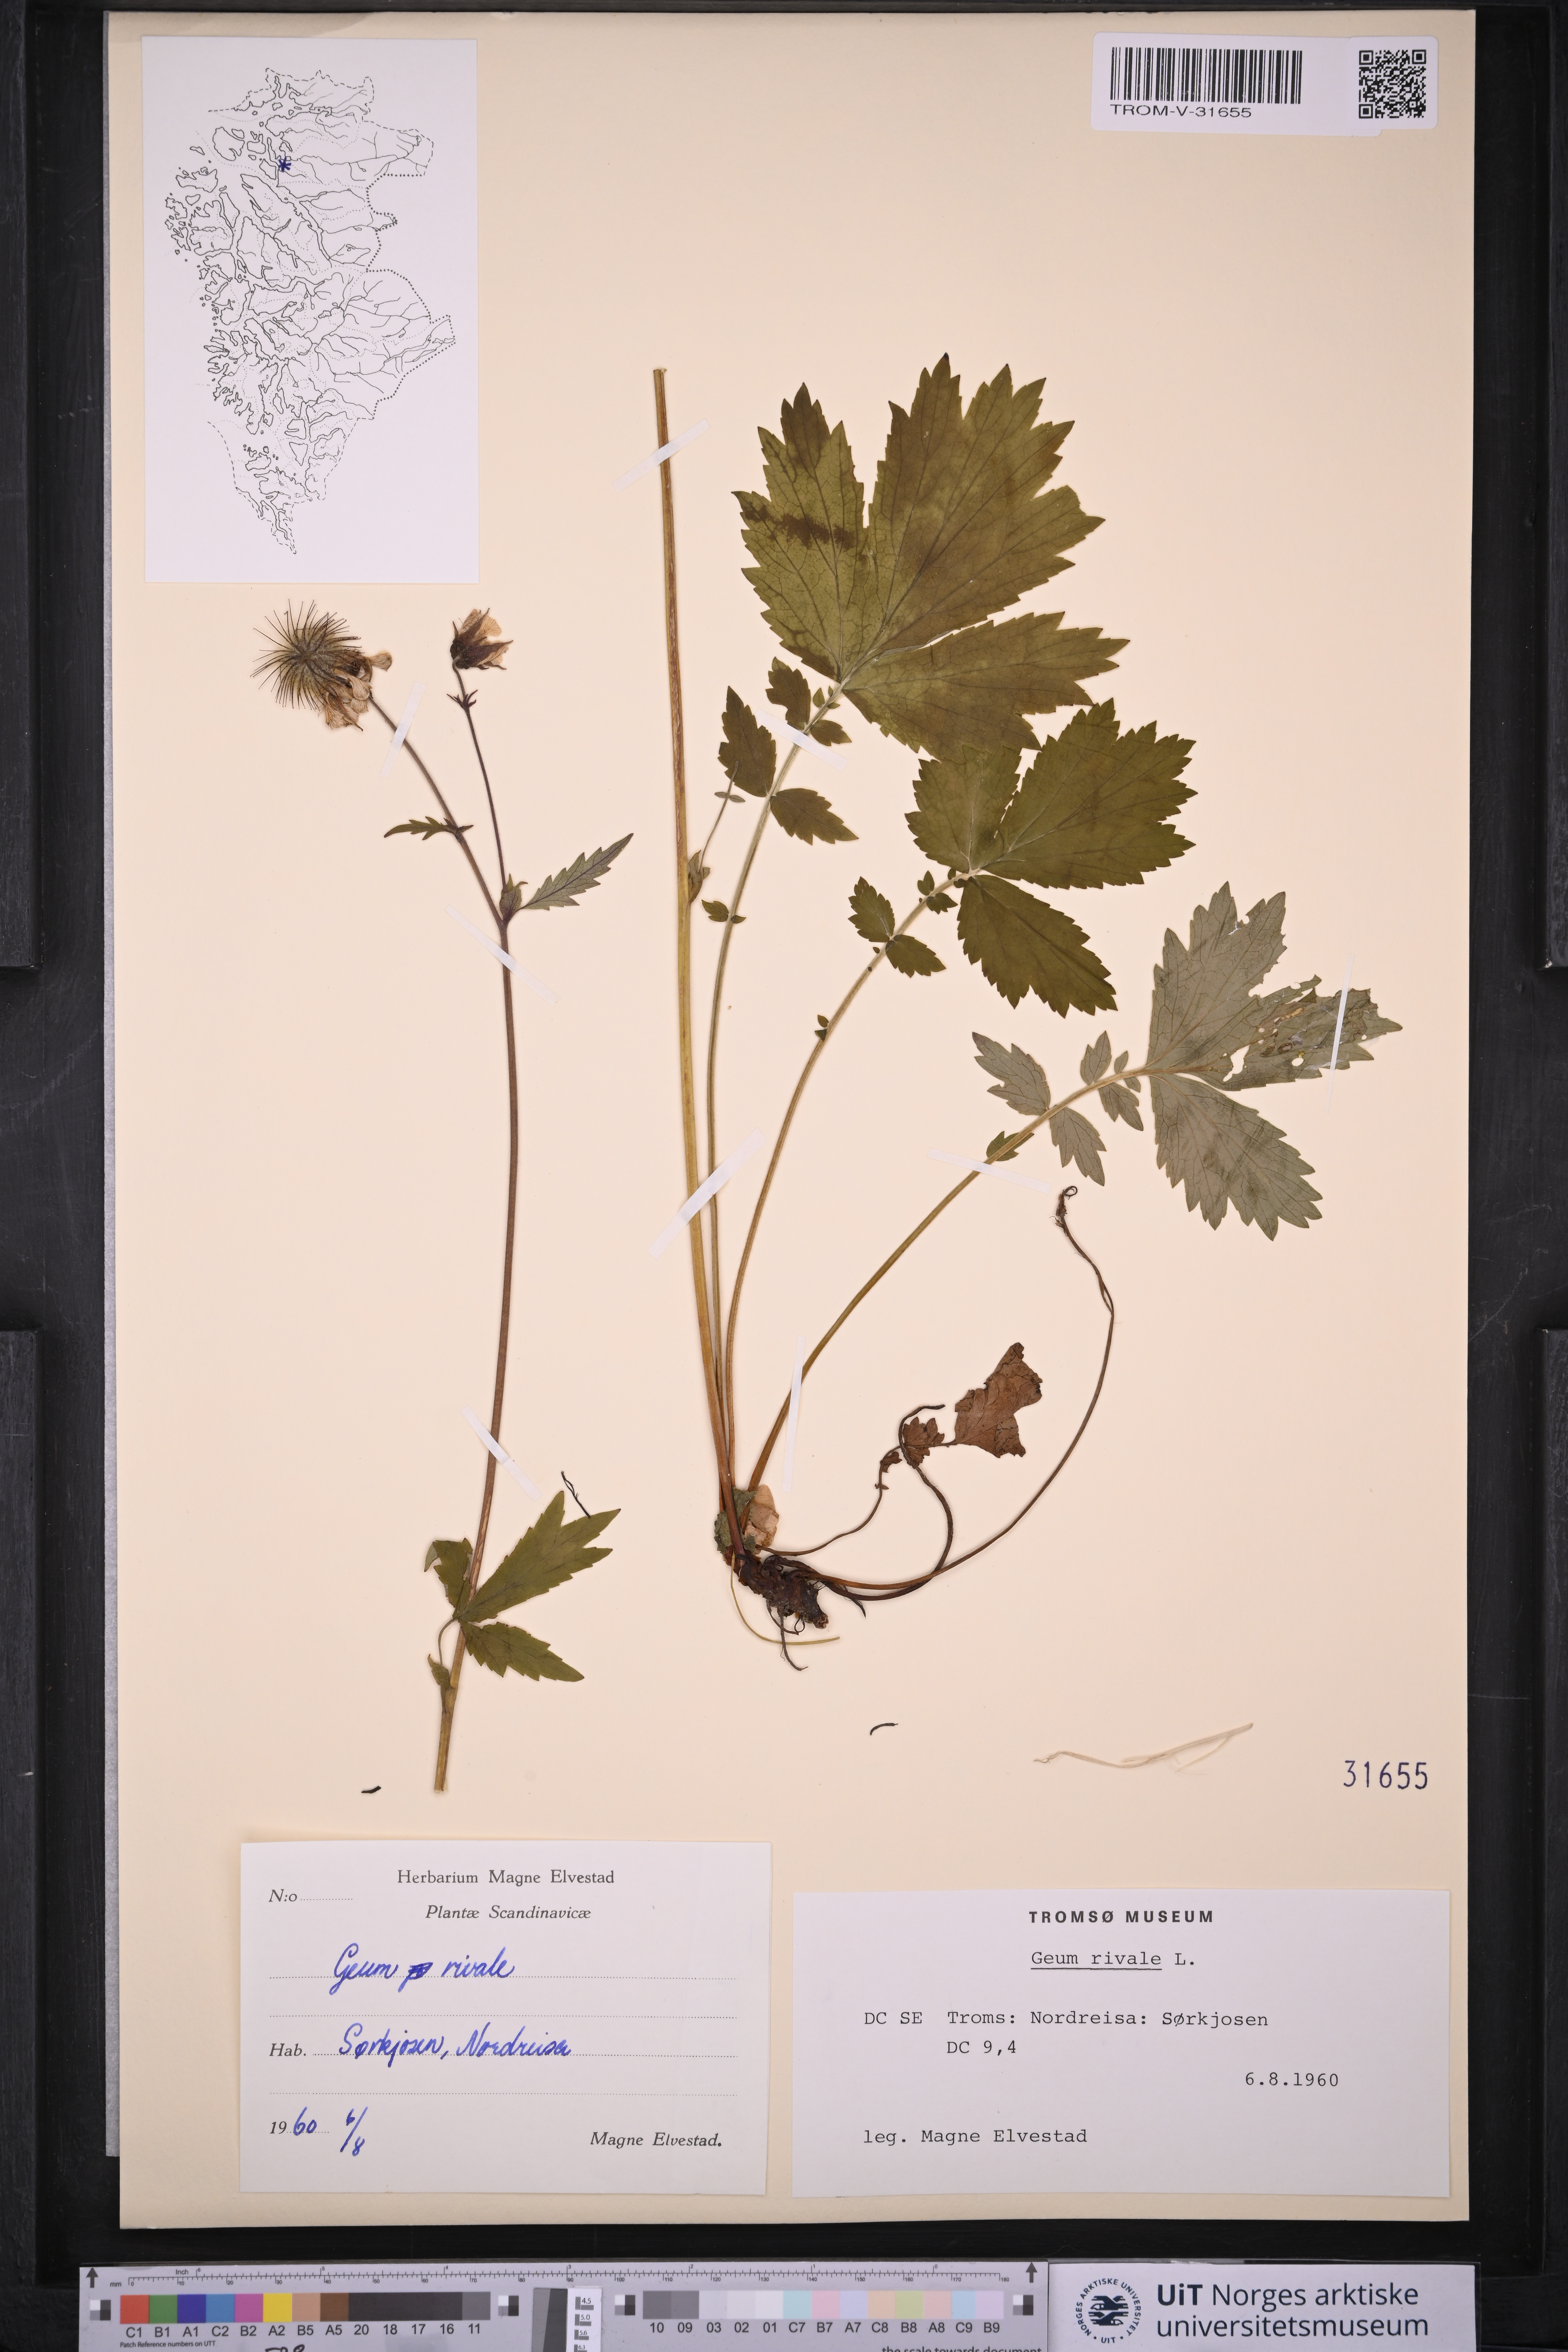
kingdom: Plantae
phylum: Tracheophyta
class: Magnoliopsida
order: Rosales
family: Rosaceae
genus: Geum
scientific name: Geum rivale
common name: Water avens
